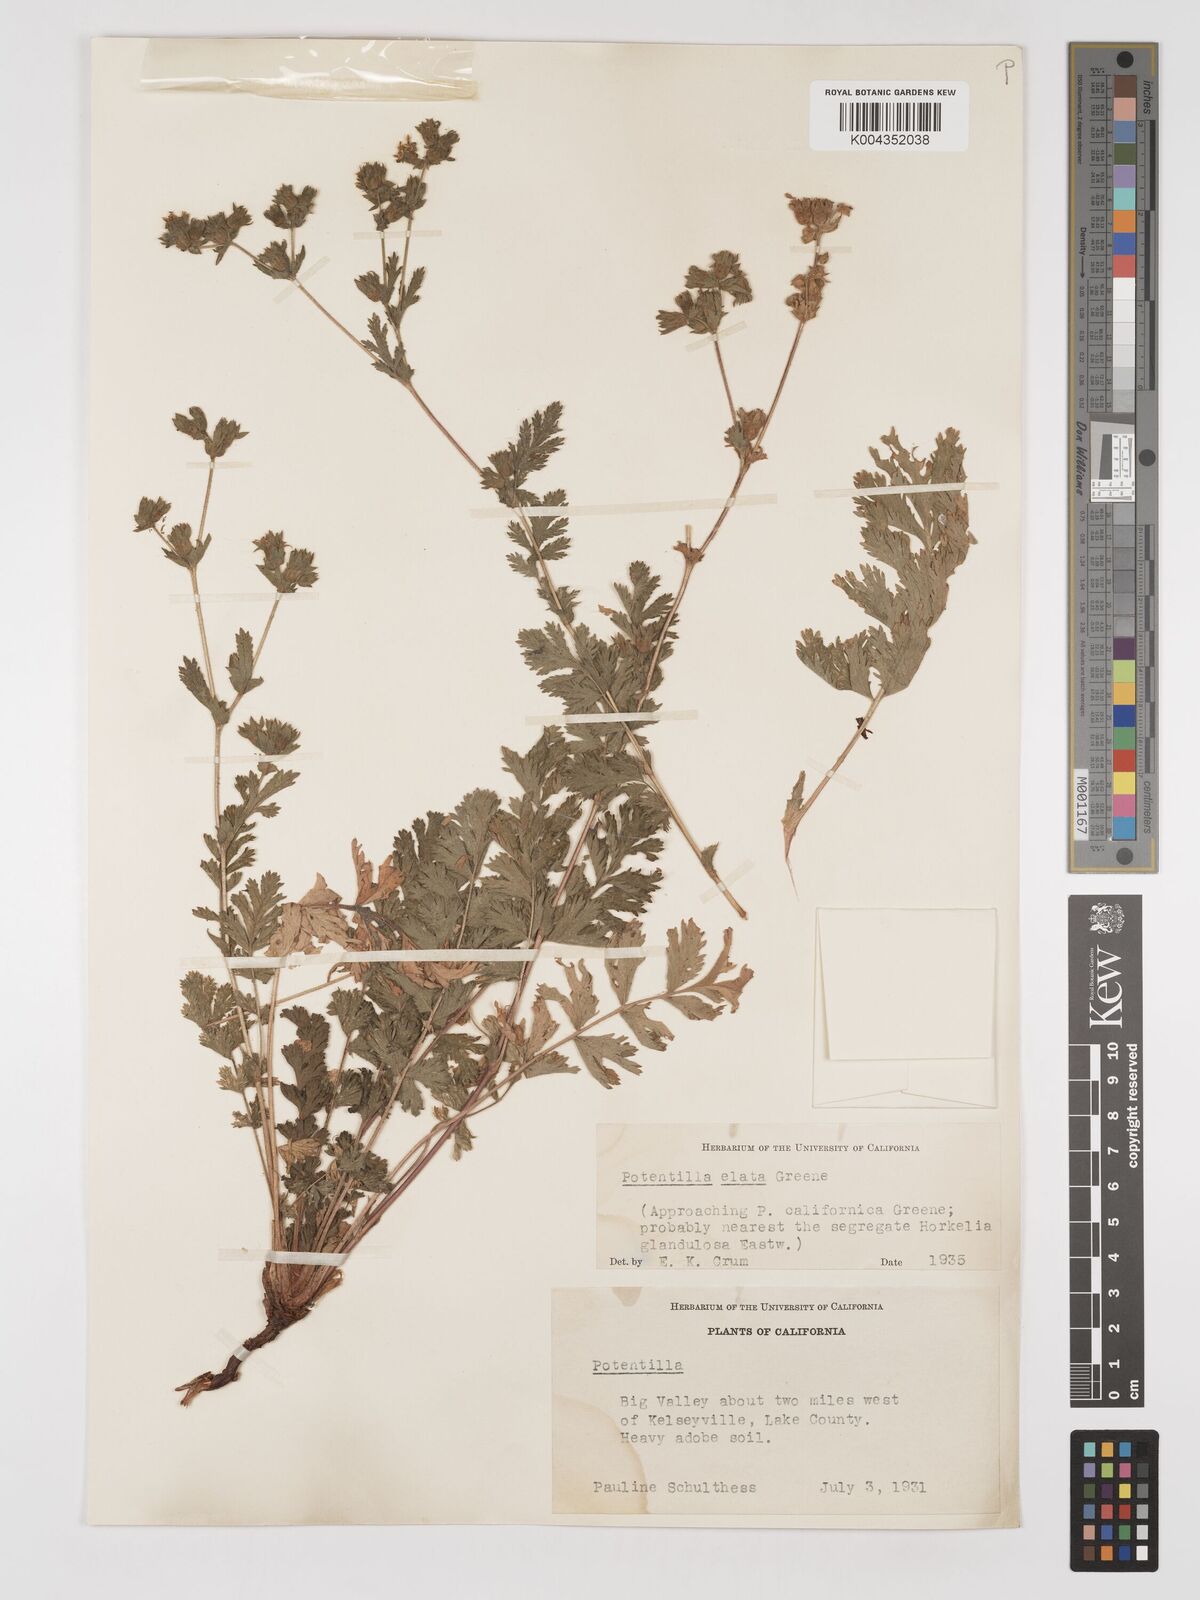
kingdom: Plantae
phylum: Tracheophyta
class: Magnoliopsida
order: Rosales
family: Rosaceae
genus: Potentilla
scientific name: Potentilla californica
